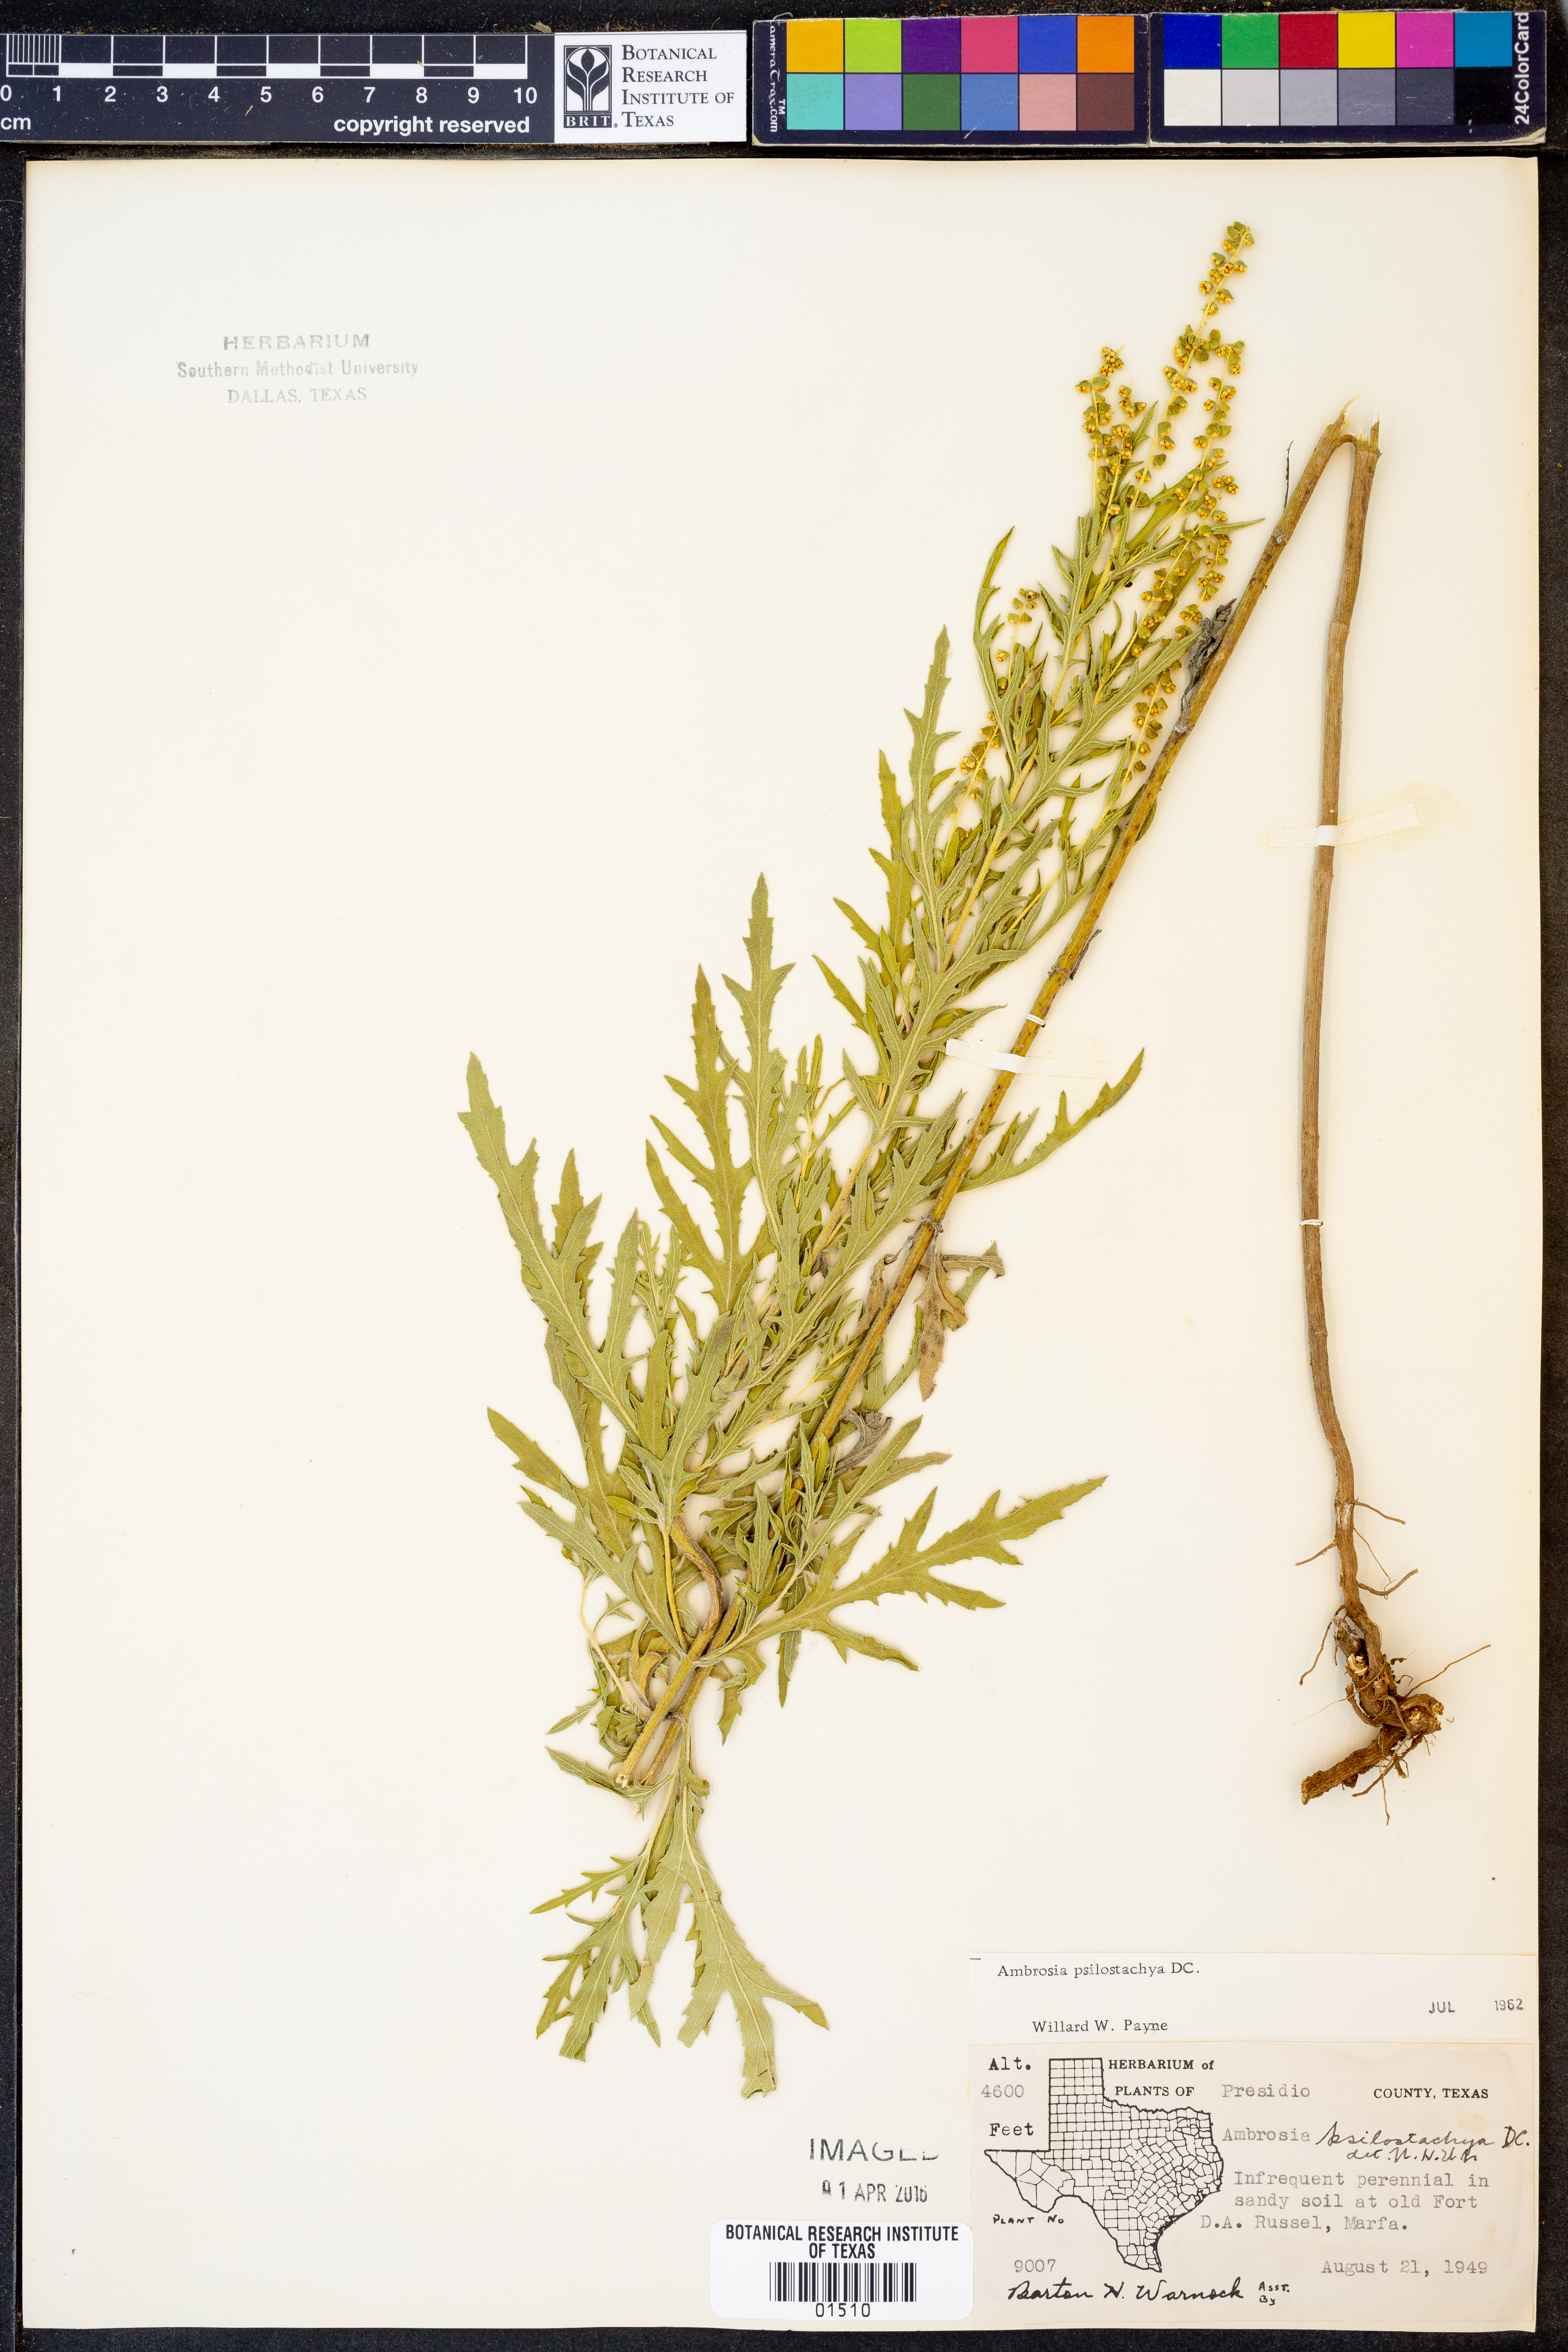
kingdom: Plantae
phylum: Tracheophyta
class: Magnoliopsida
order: Asterales
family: Asteraceae
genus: Ambrosia
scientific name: Ambrosia psilostachya
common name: Perennial ragweed
